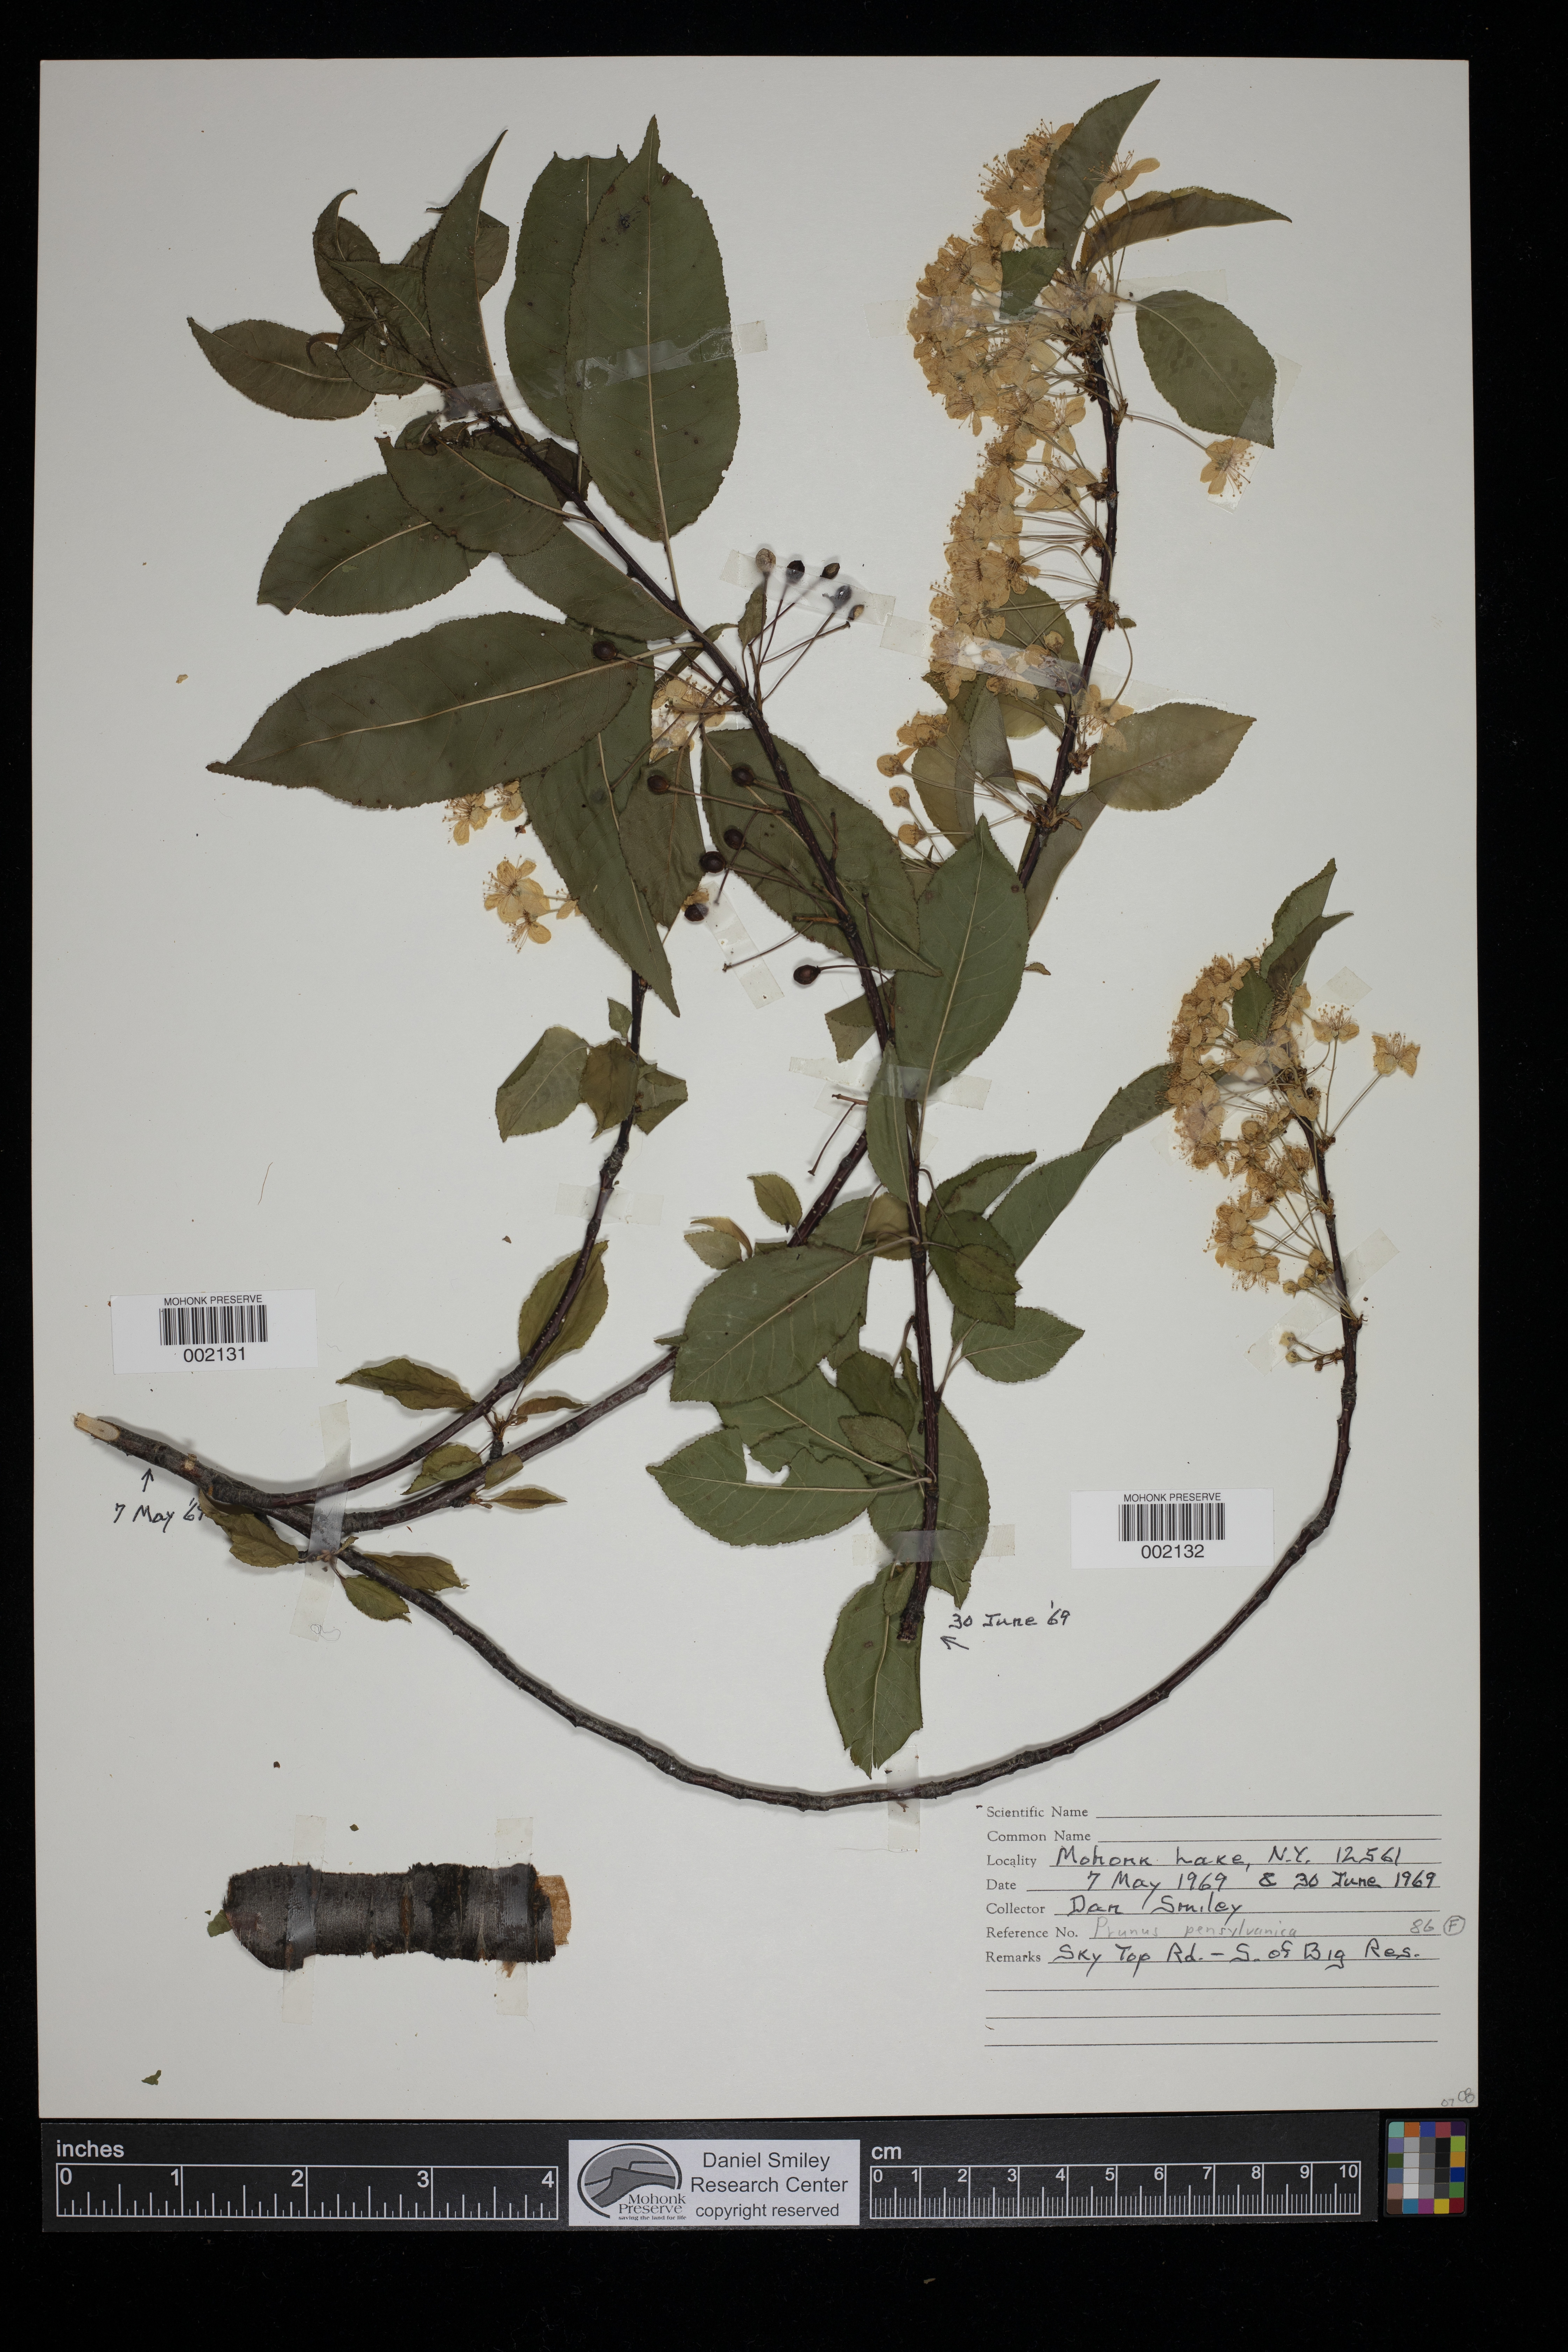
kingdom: Plantae
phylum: Tracheophyta
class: Magnoliopsida
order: Rosales
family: Rosaceae
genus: Prunus
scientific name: Prunus pensylvanica
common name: Pin cherry
